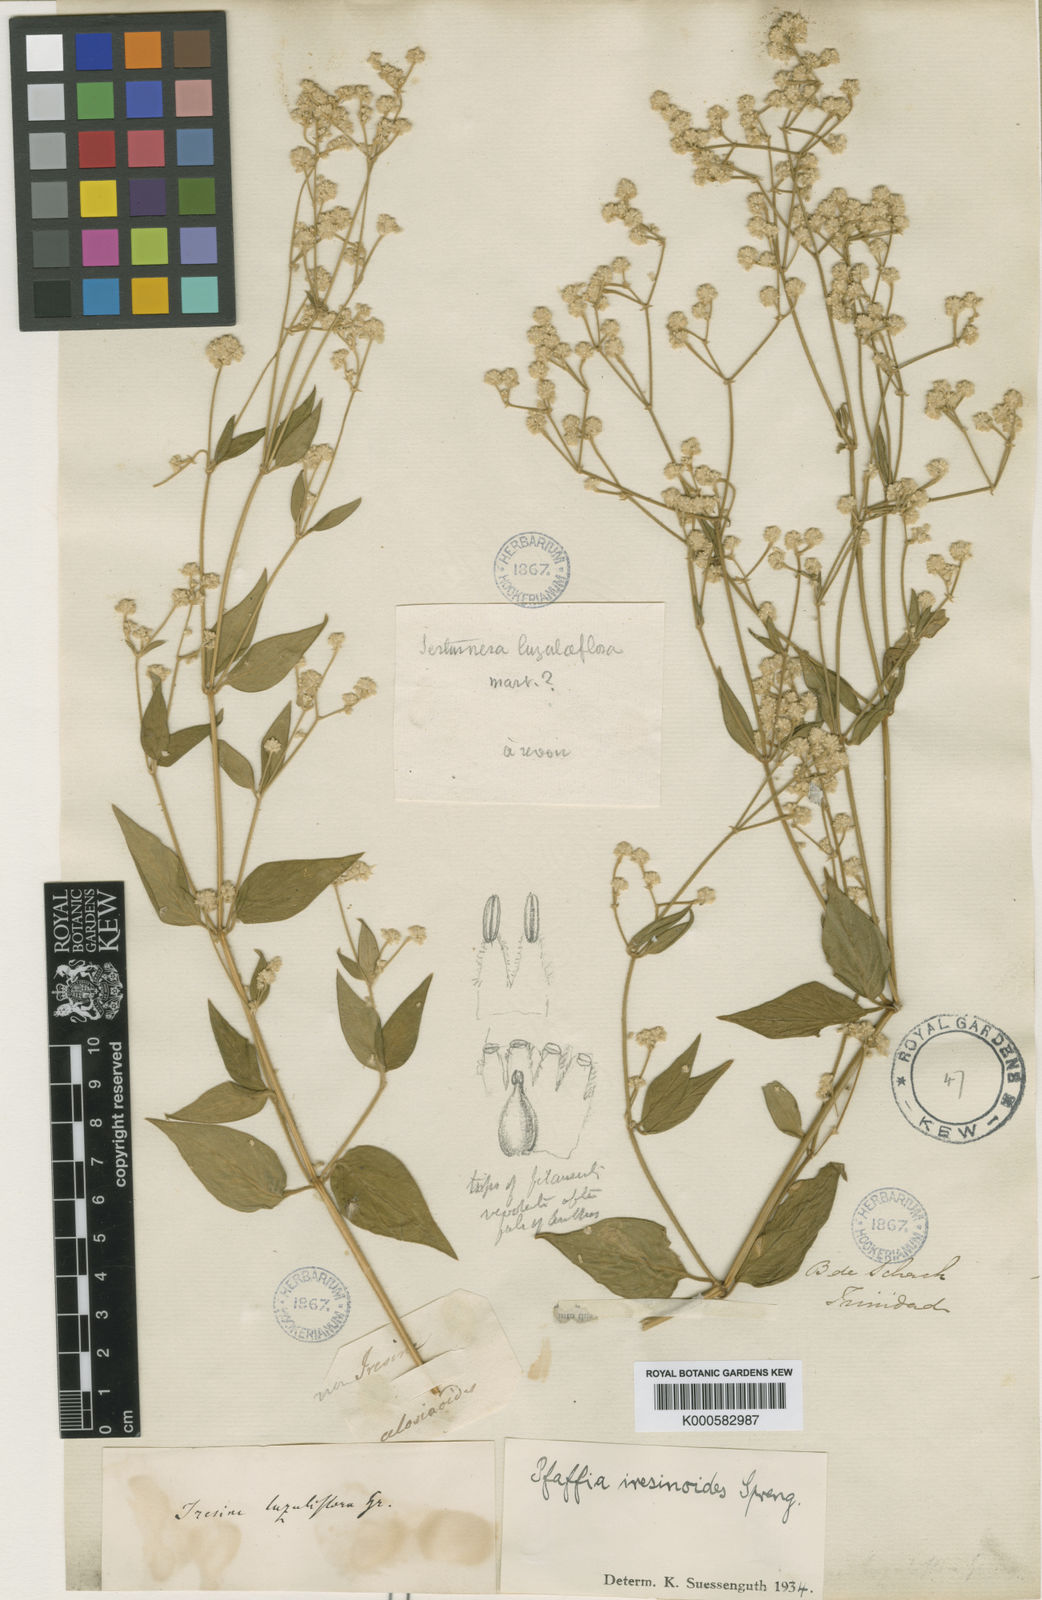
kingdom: Plantae
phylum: Tracheophyta
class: Magnoliopsida
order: Caryophyllales
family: Amaranthaceae
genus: Pfaffia
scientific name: Pfaffia iresinoides
